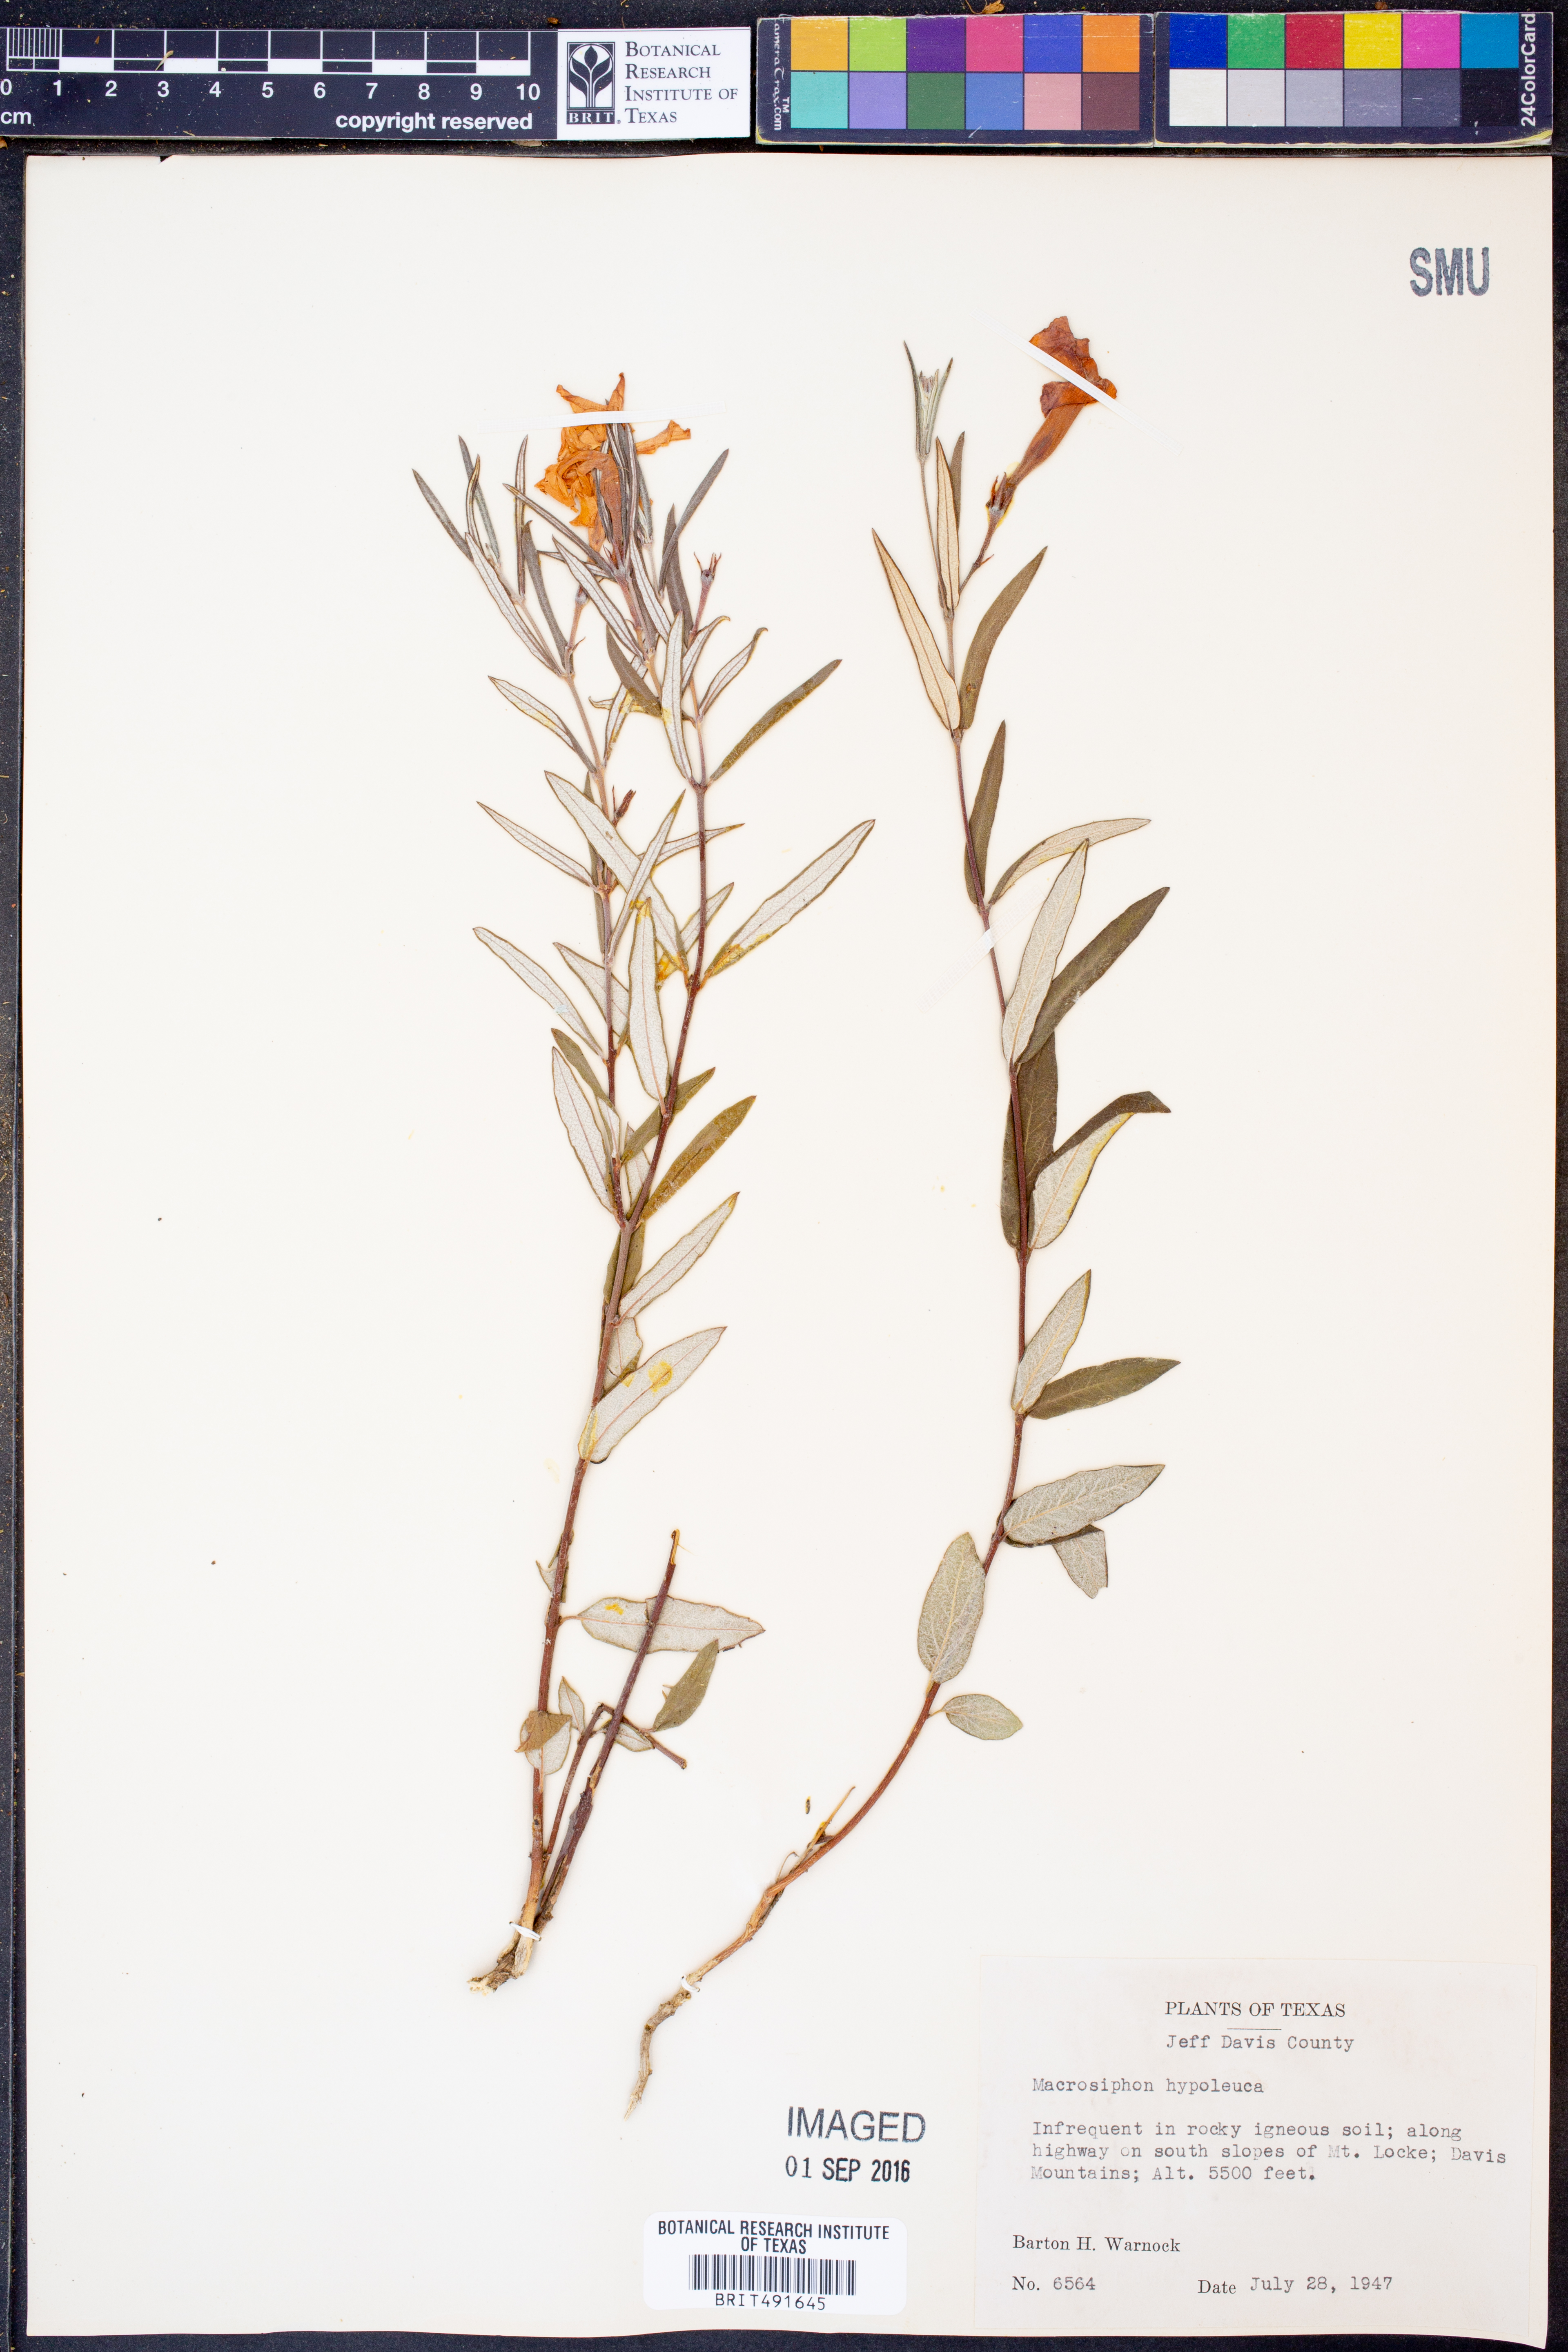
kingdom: Plantae
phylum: Tracheophyta
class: Magnoliopsida
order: Gentianales
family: Apocynaceae
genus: Mandevilla
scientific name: Mandevilla hypoleuca
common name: Davis mountain rocktrumpet
